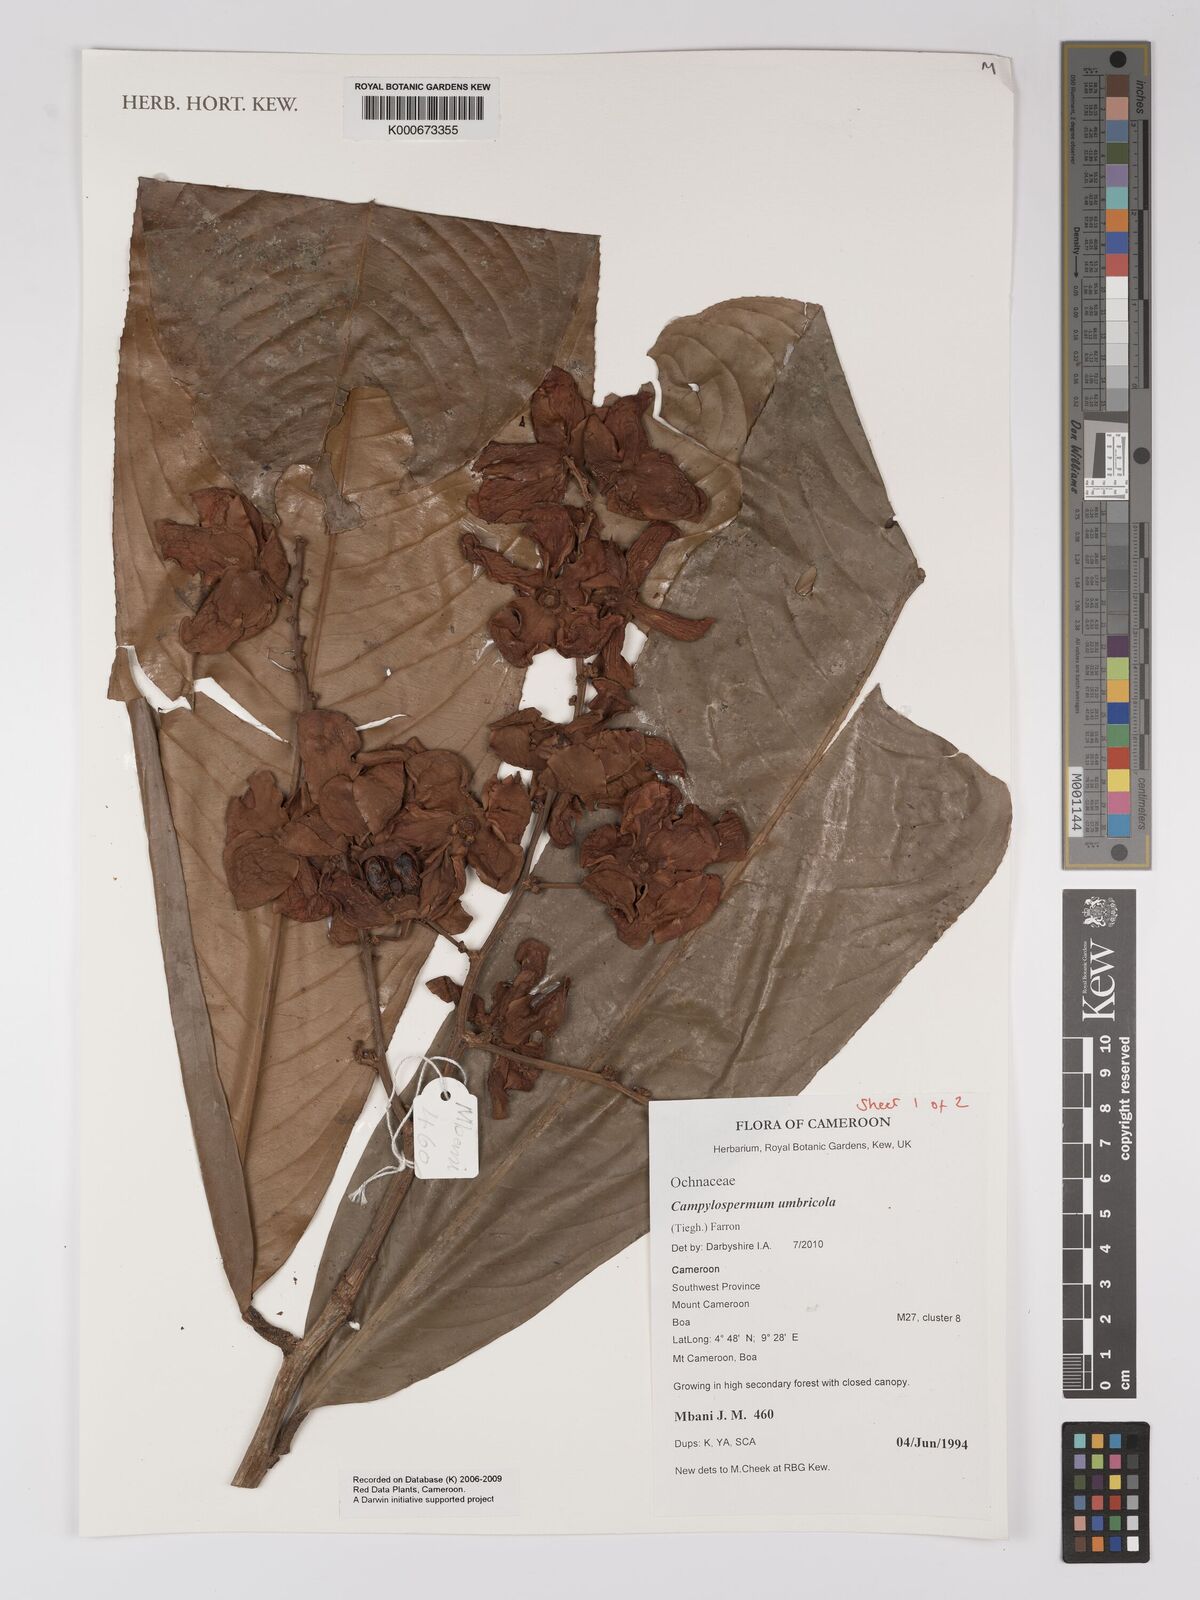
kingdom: Plantae
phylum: Tracheophyta
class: Magnoliopsida
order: Malpighiales
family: Ochnaceae
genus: Campylospermum
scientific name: Campylospermum umbricola
